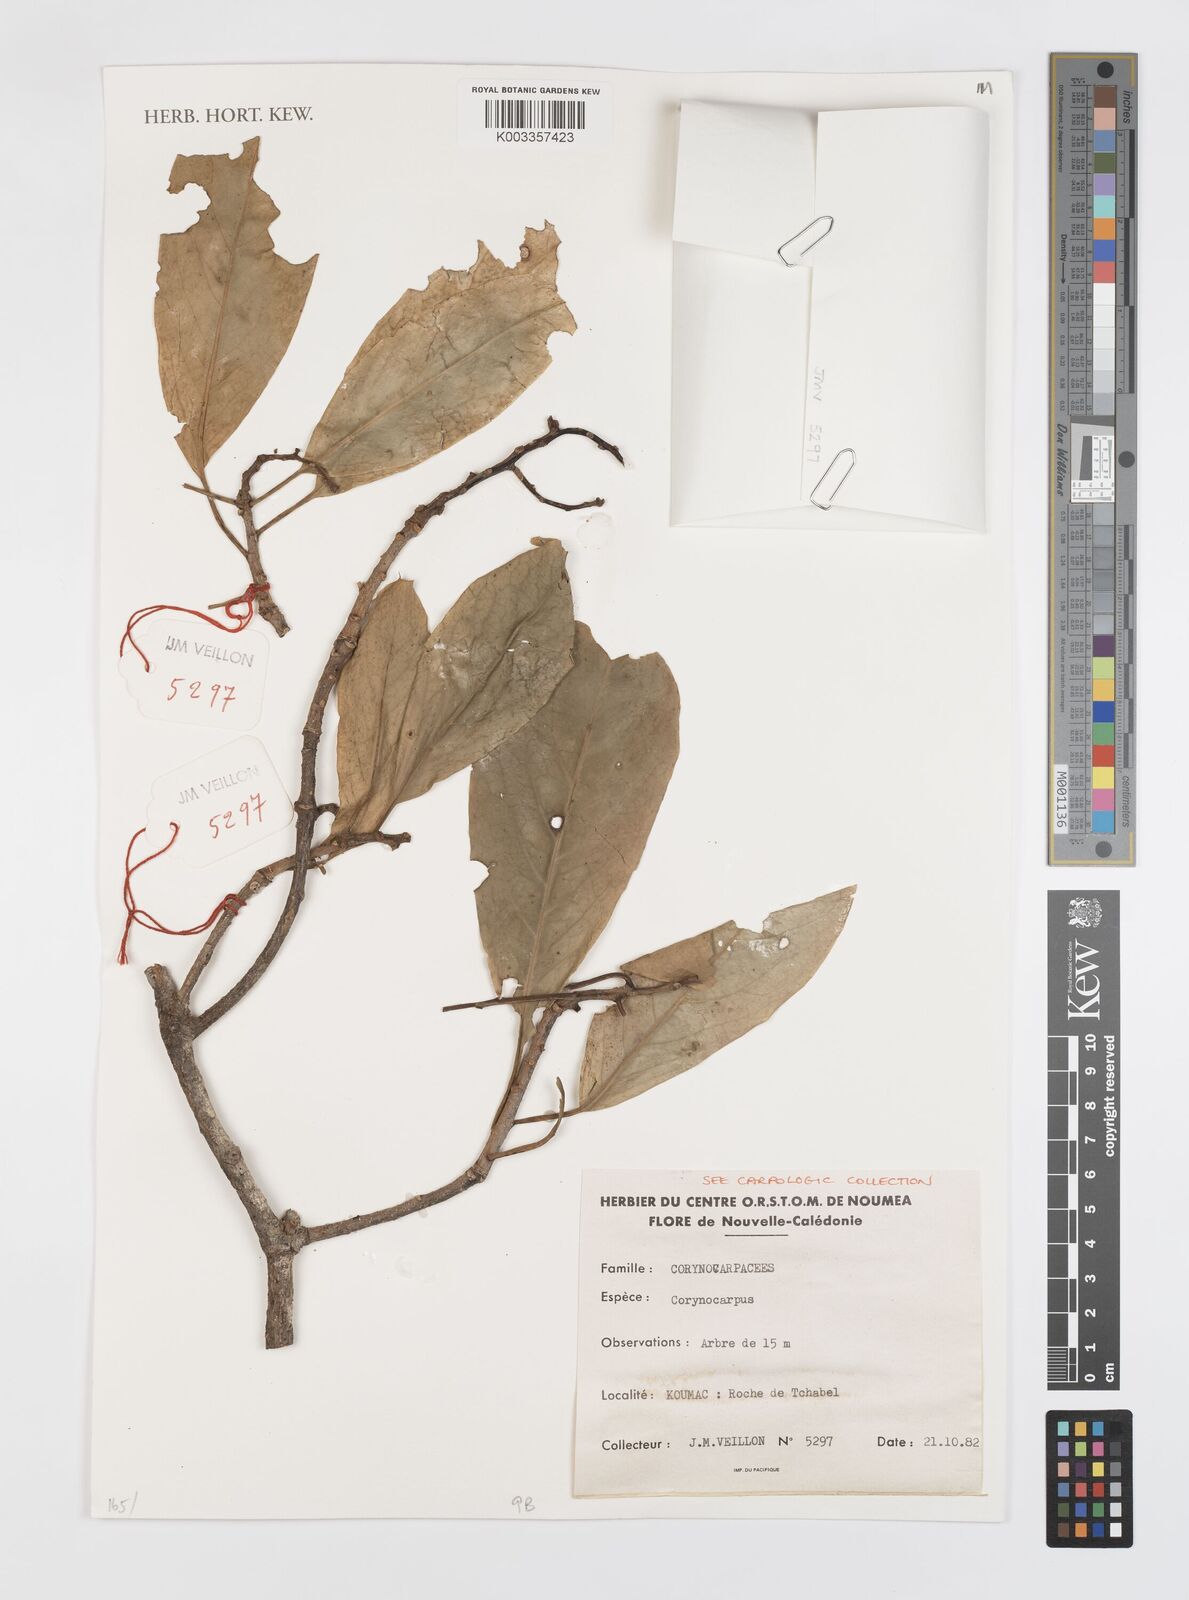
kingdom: Plantae
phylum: Tracheophyta
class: Magnoliopsida
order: Cucurbitales
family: Corynocarpaceae
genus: Corynocarpus
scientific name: Corynocarpus
